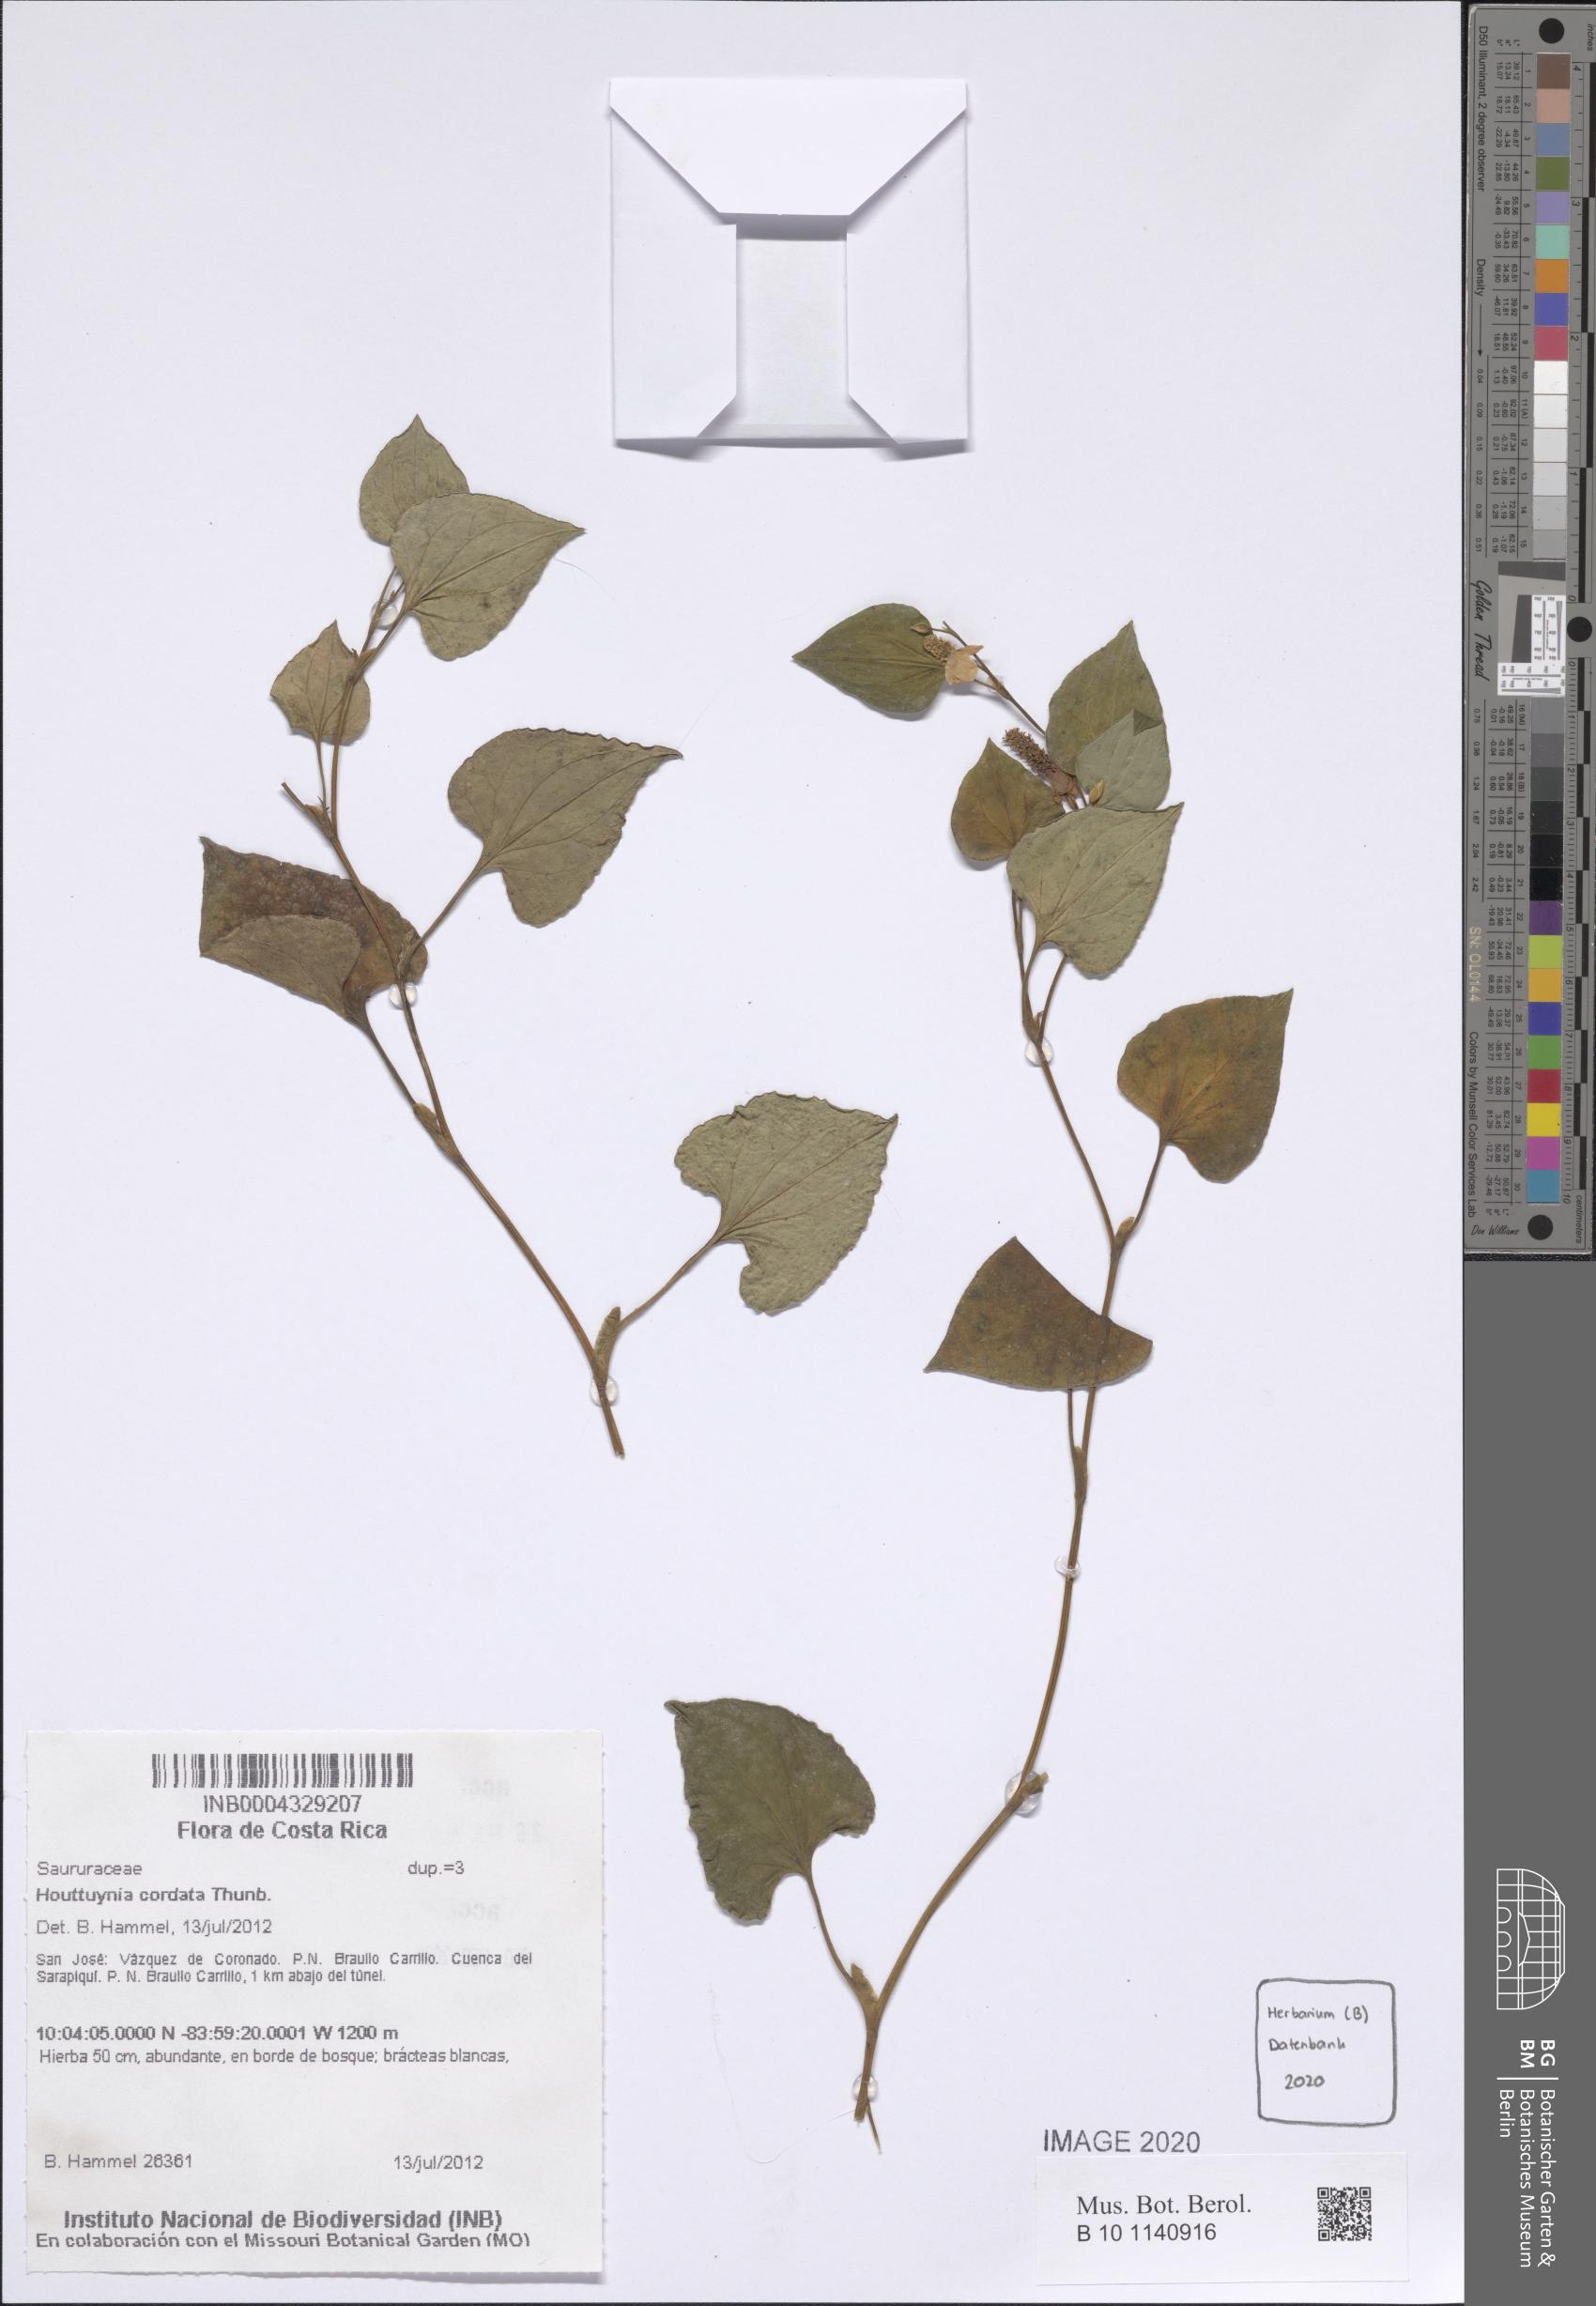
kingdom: Plantae
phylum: Tracheophyta
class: Magnoliopsida
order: Piperales
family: Saururaceae
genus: Houttuynia
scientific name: Houttuynia cordata
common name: Chameleon
